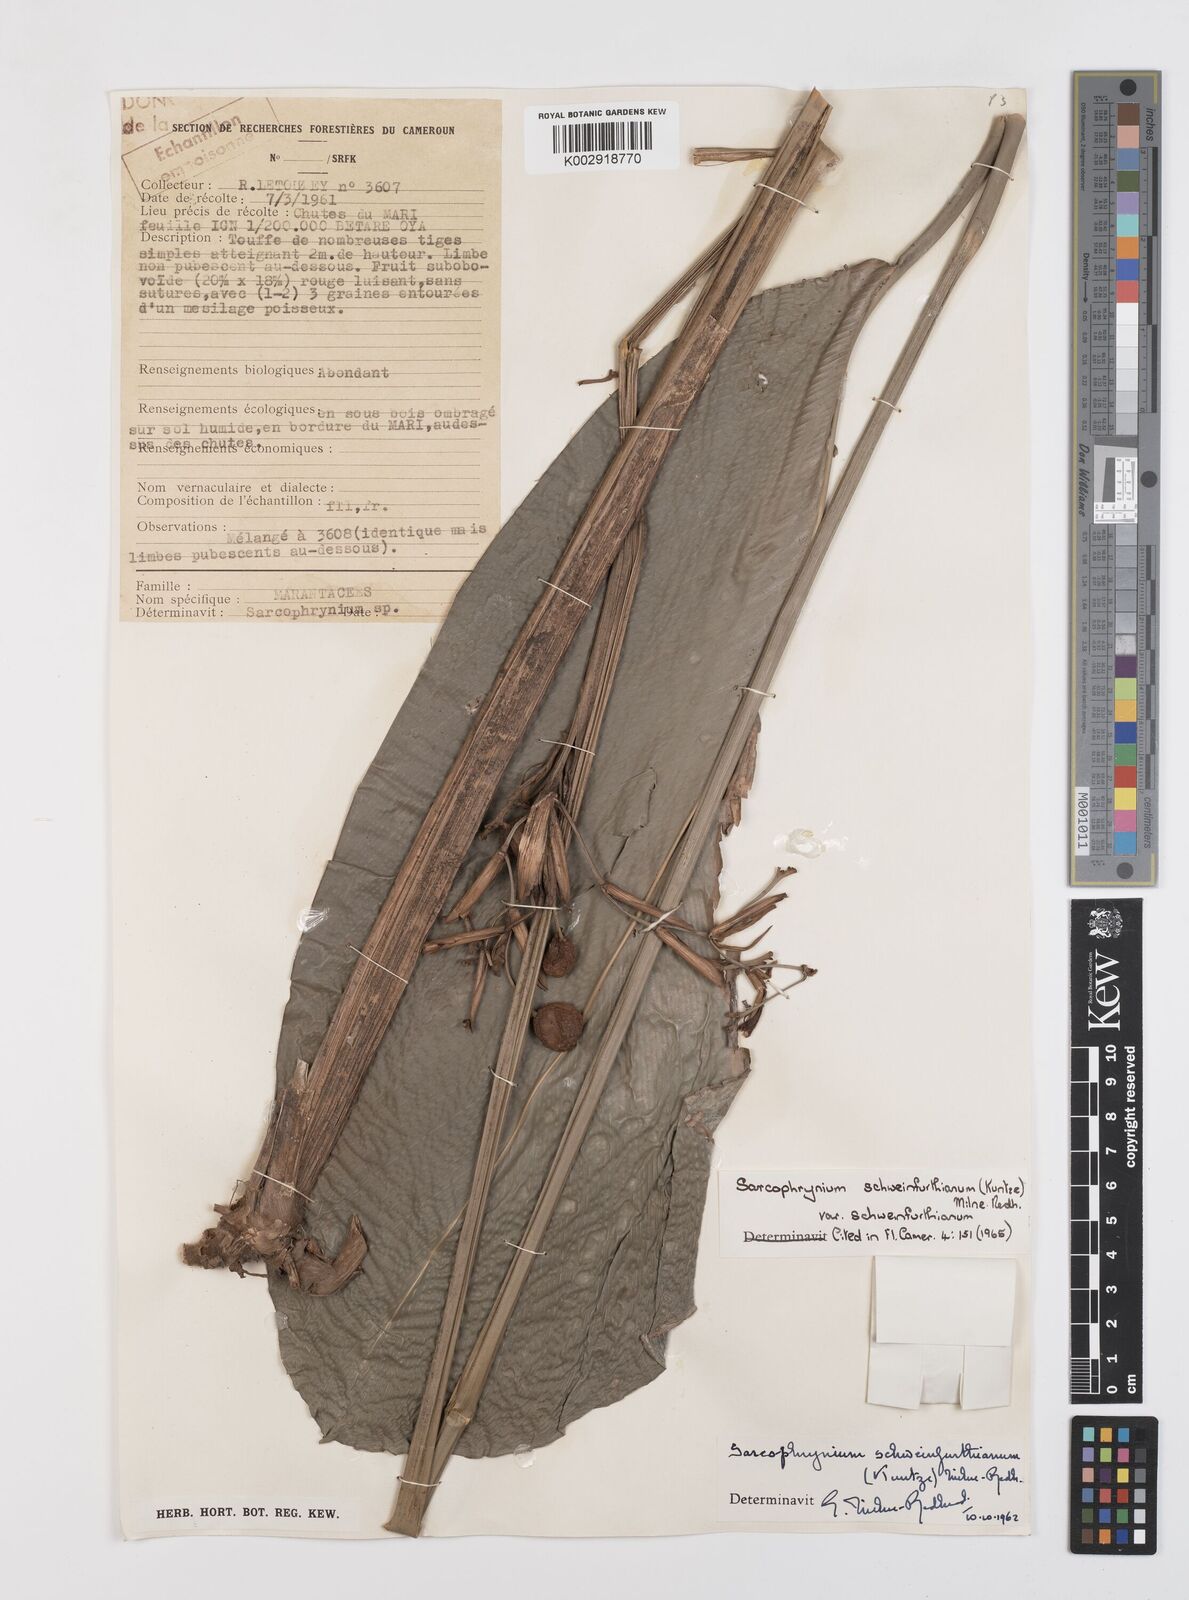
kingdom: Plantae
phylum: Tracheophyta
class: Liliopsida
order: Zingiberales
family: Marantaceae
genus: Sarcophrynium
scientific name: Sarcophrynium schweinfurthianum
